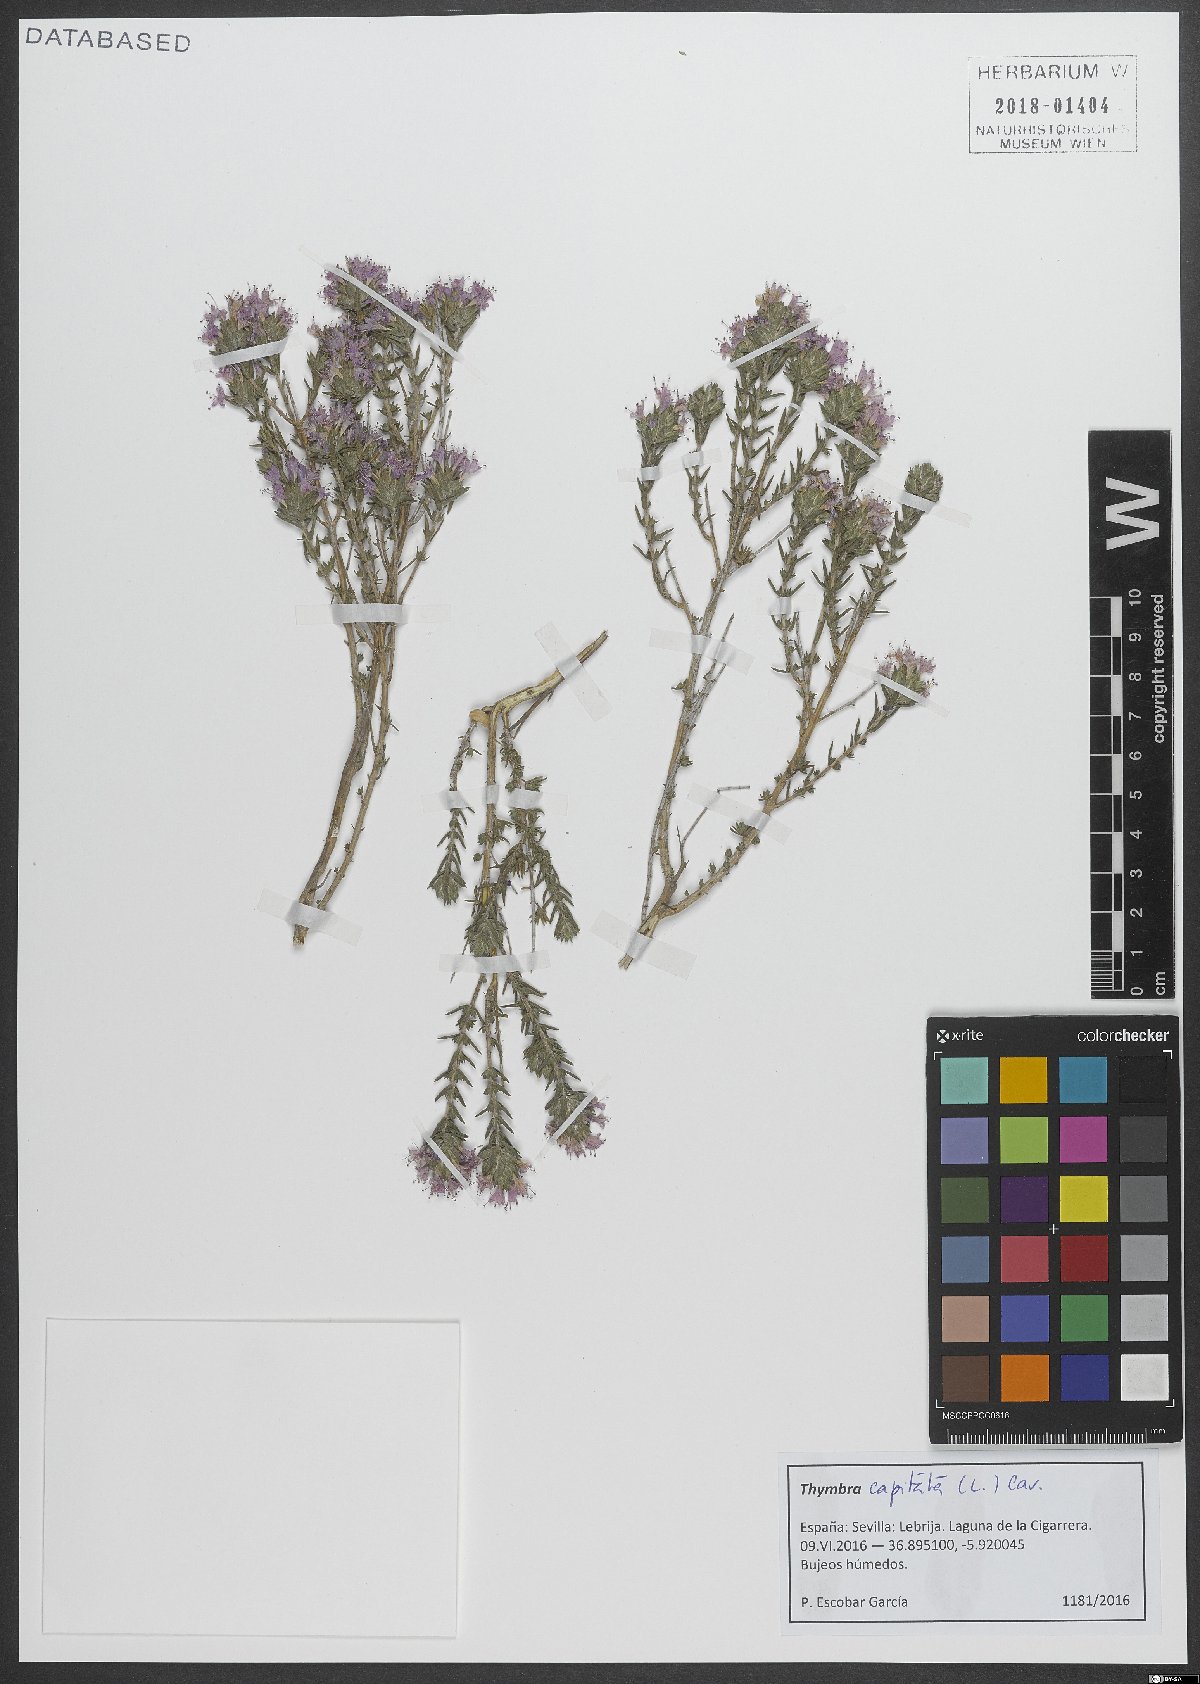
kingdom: Plantae
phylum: Tracheophyta
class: Magnoliopsida
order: Lamiales
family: Lamiaceae
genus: Thymbra
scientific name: Thymbra capitata
